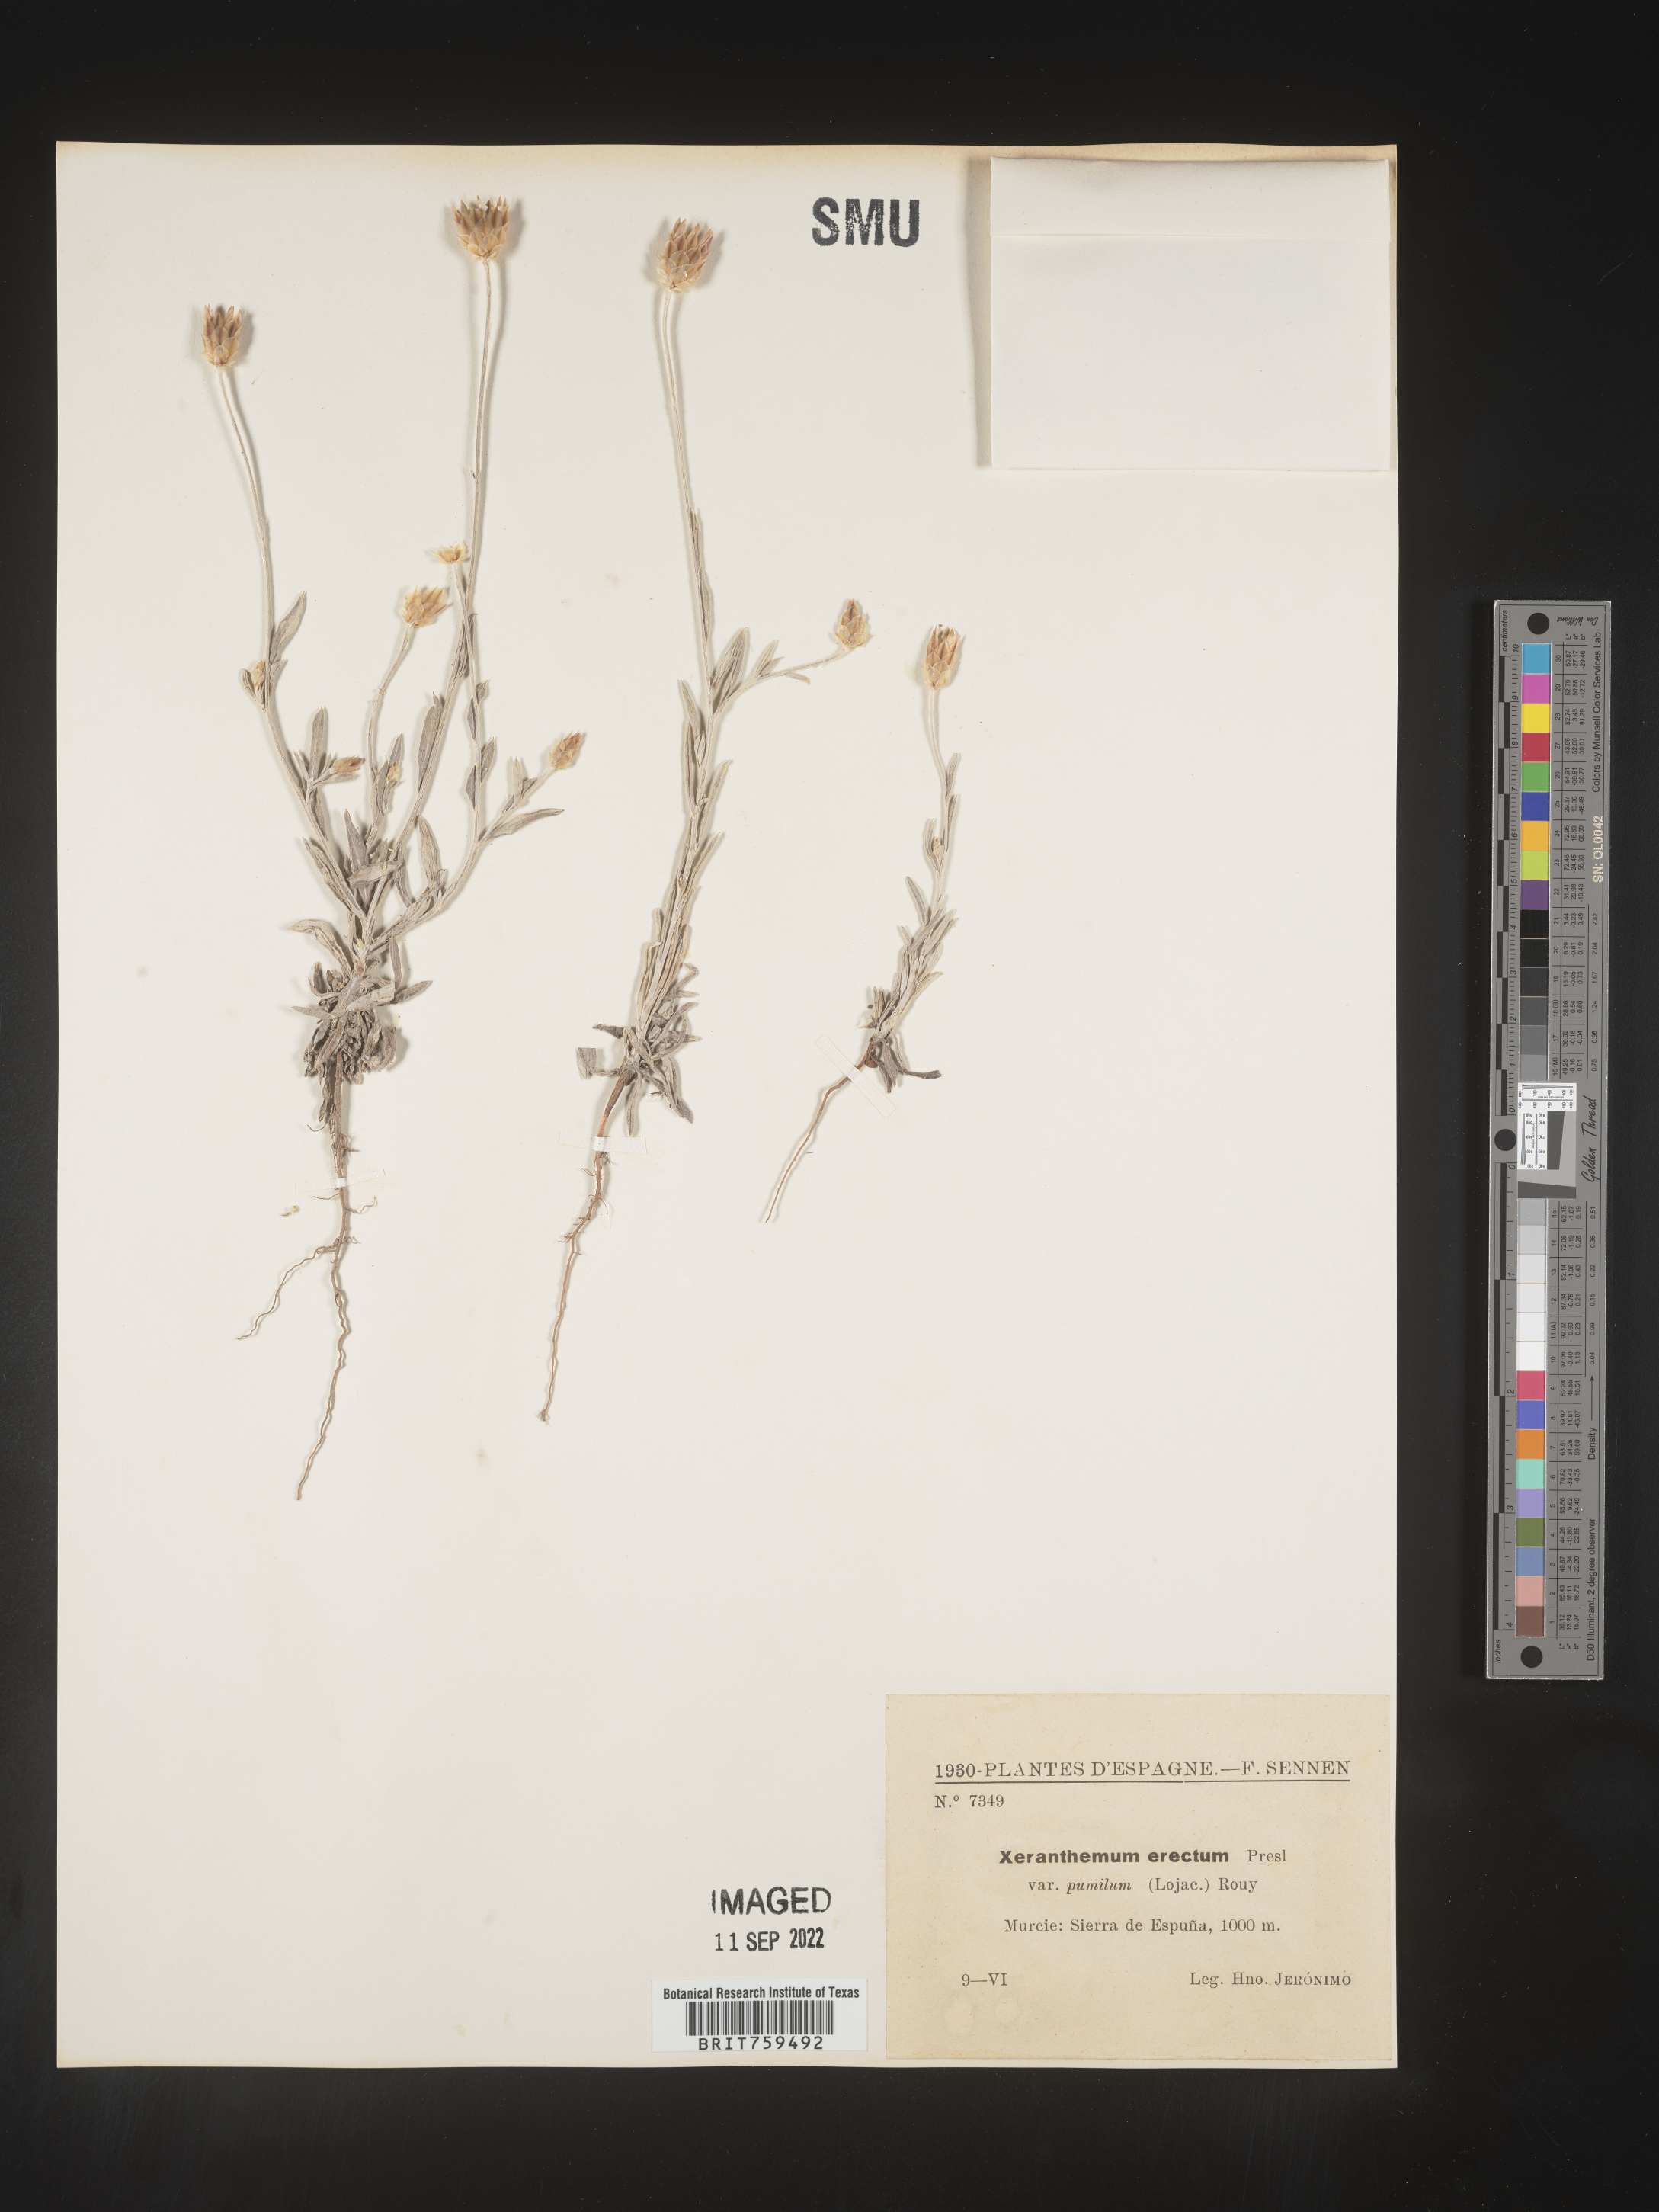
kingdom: Plantae
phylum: Tracheophyta
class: Magnoliopsida
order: Asterales
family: Asteraceae
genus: Xeranthemum
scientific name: Xeranthemum
